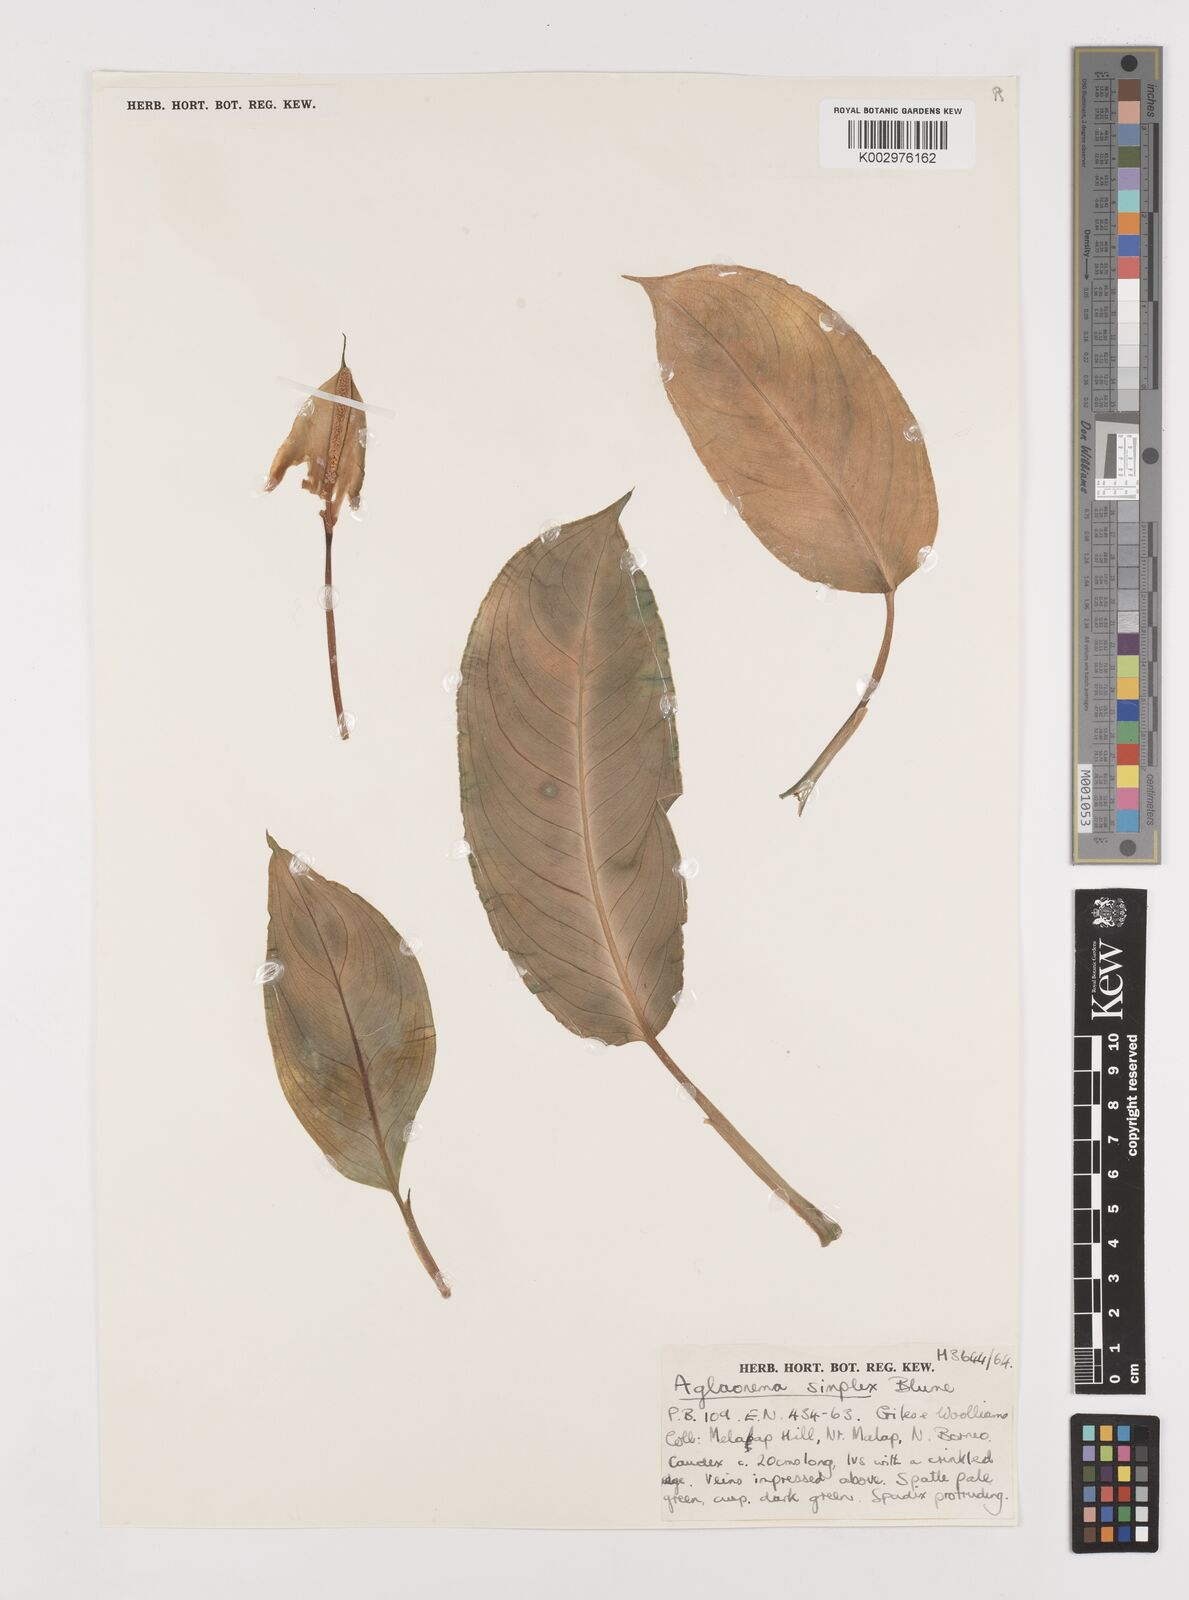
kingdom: Plantae
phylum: Tracheophyta
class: Liliopsida
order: Alismatales
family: Araceae
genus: Aglaonema
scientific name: Aglaonema simplex
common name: Malayan-sword
